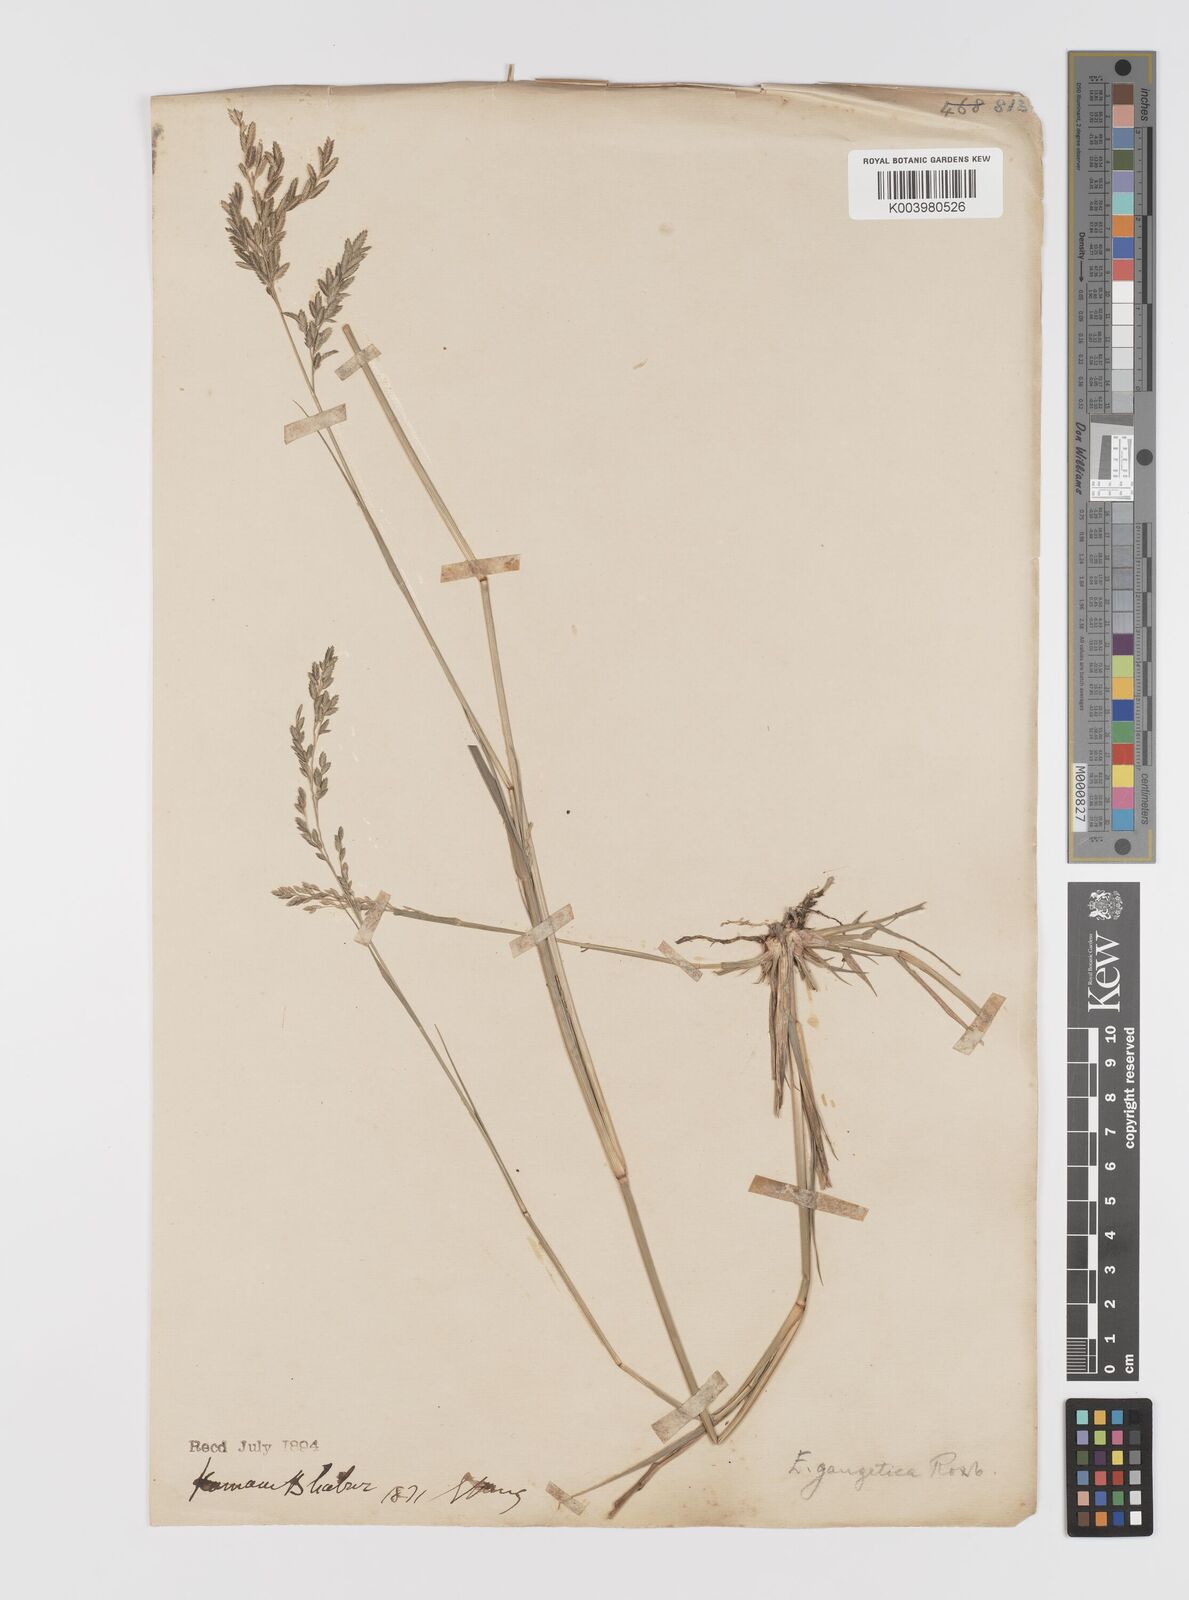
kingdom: Plantae
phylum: Tracheophyta
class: Liliopsida
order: Poales
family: Poaceae
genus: Eragrostis
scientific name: Eragrostis
